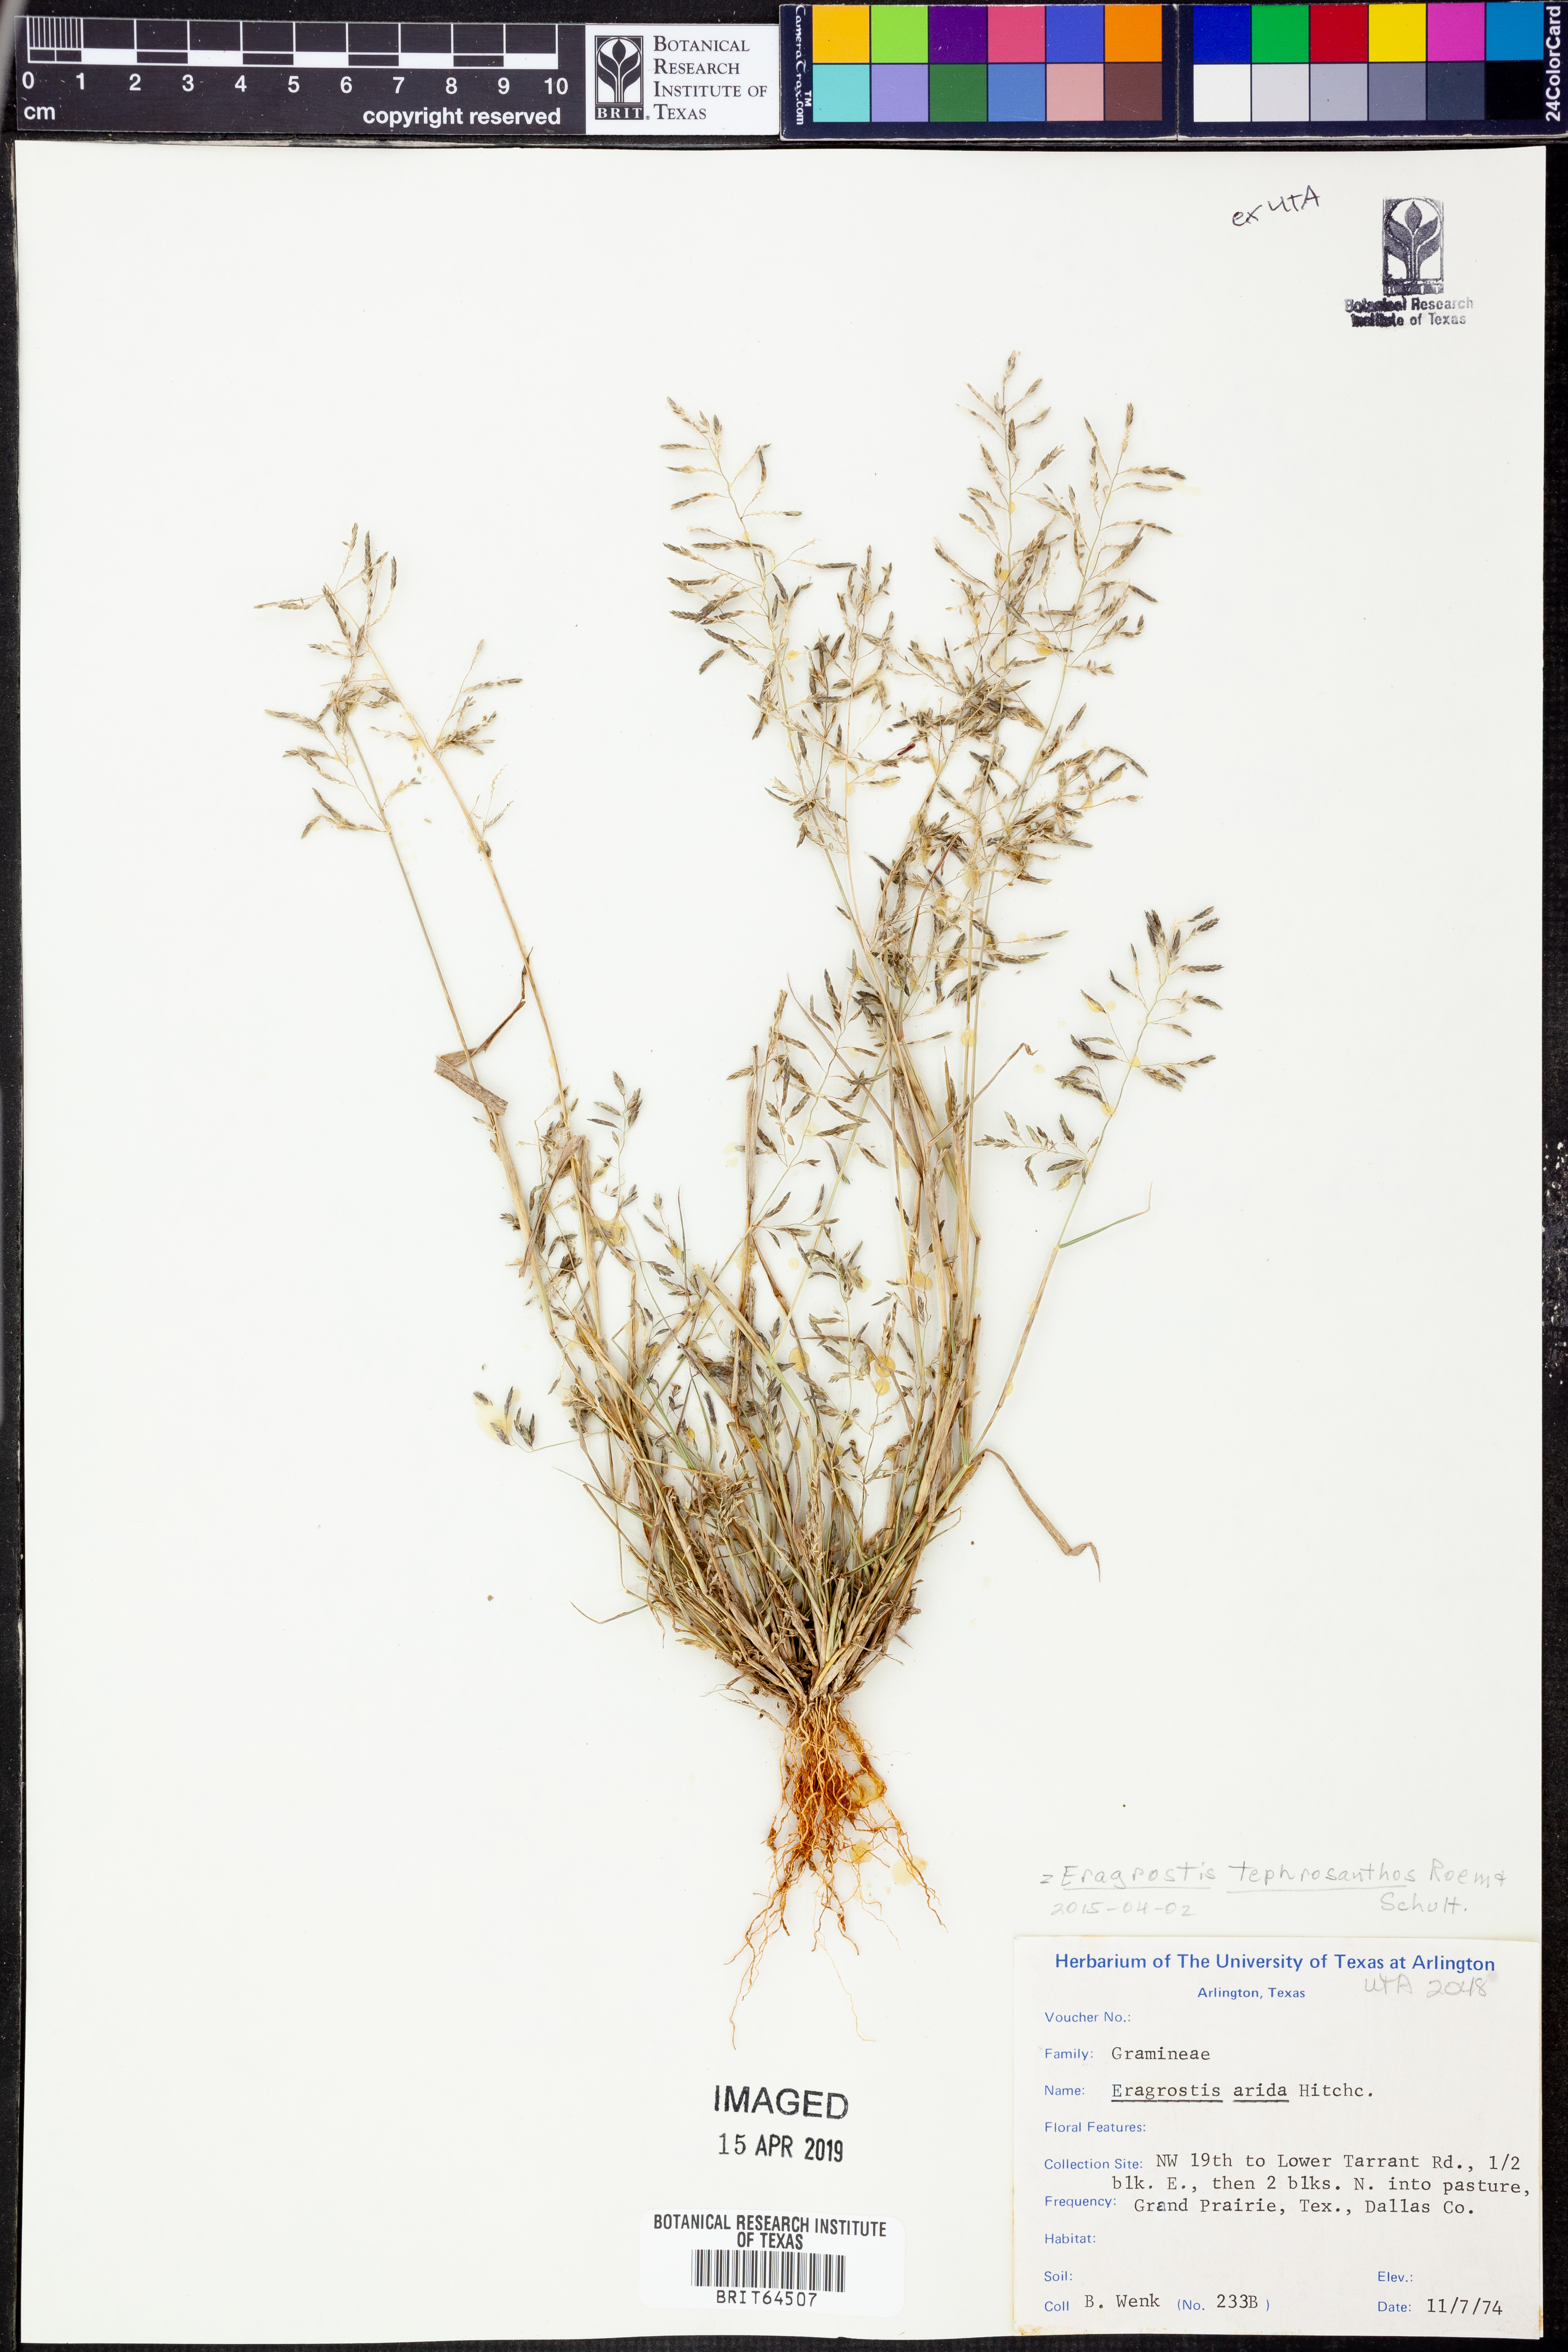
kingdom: Plantae
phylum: Tracheophyta
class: Liliopsida
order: Poales
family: Poaceae
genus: Eragrostis
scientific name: Eragrostis tephrosanthos
